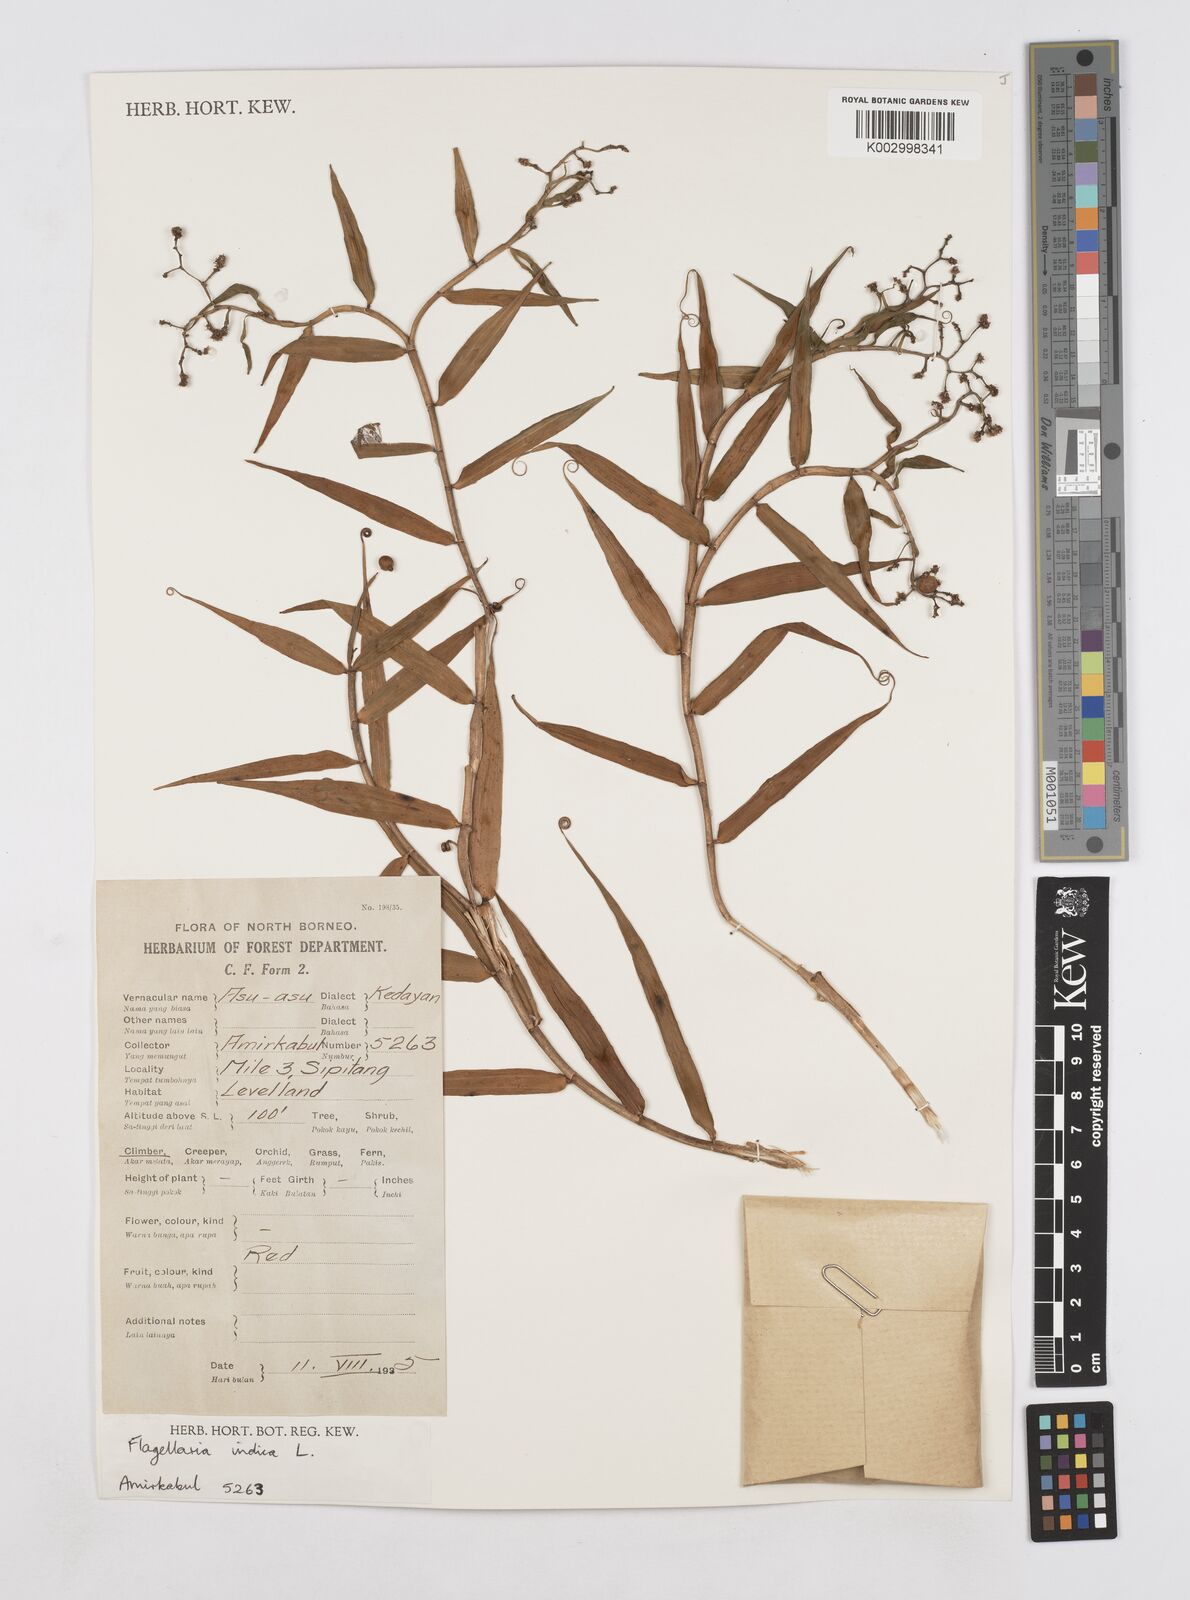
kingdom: Plantae
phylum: Tracheophyta
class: Liliopsida
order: Poales
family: Flagellariaceae
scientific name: Flagellariaceae
